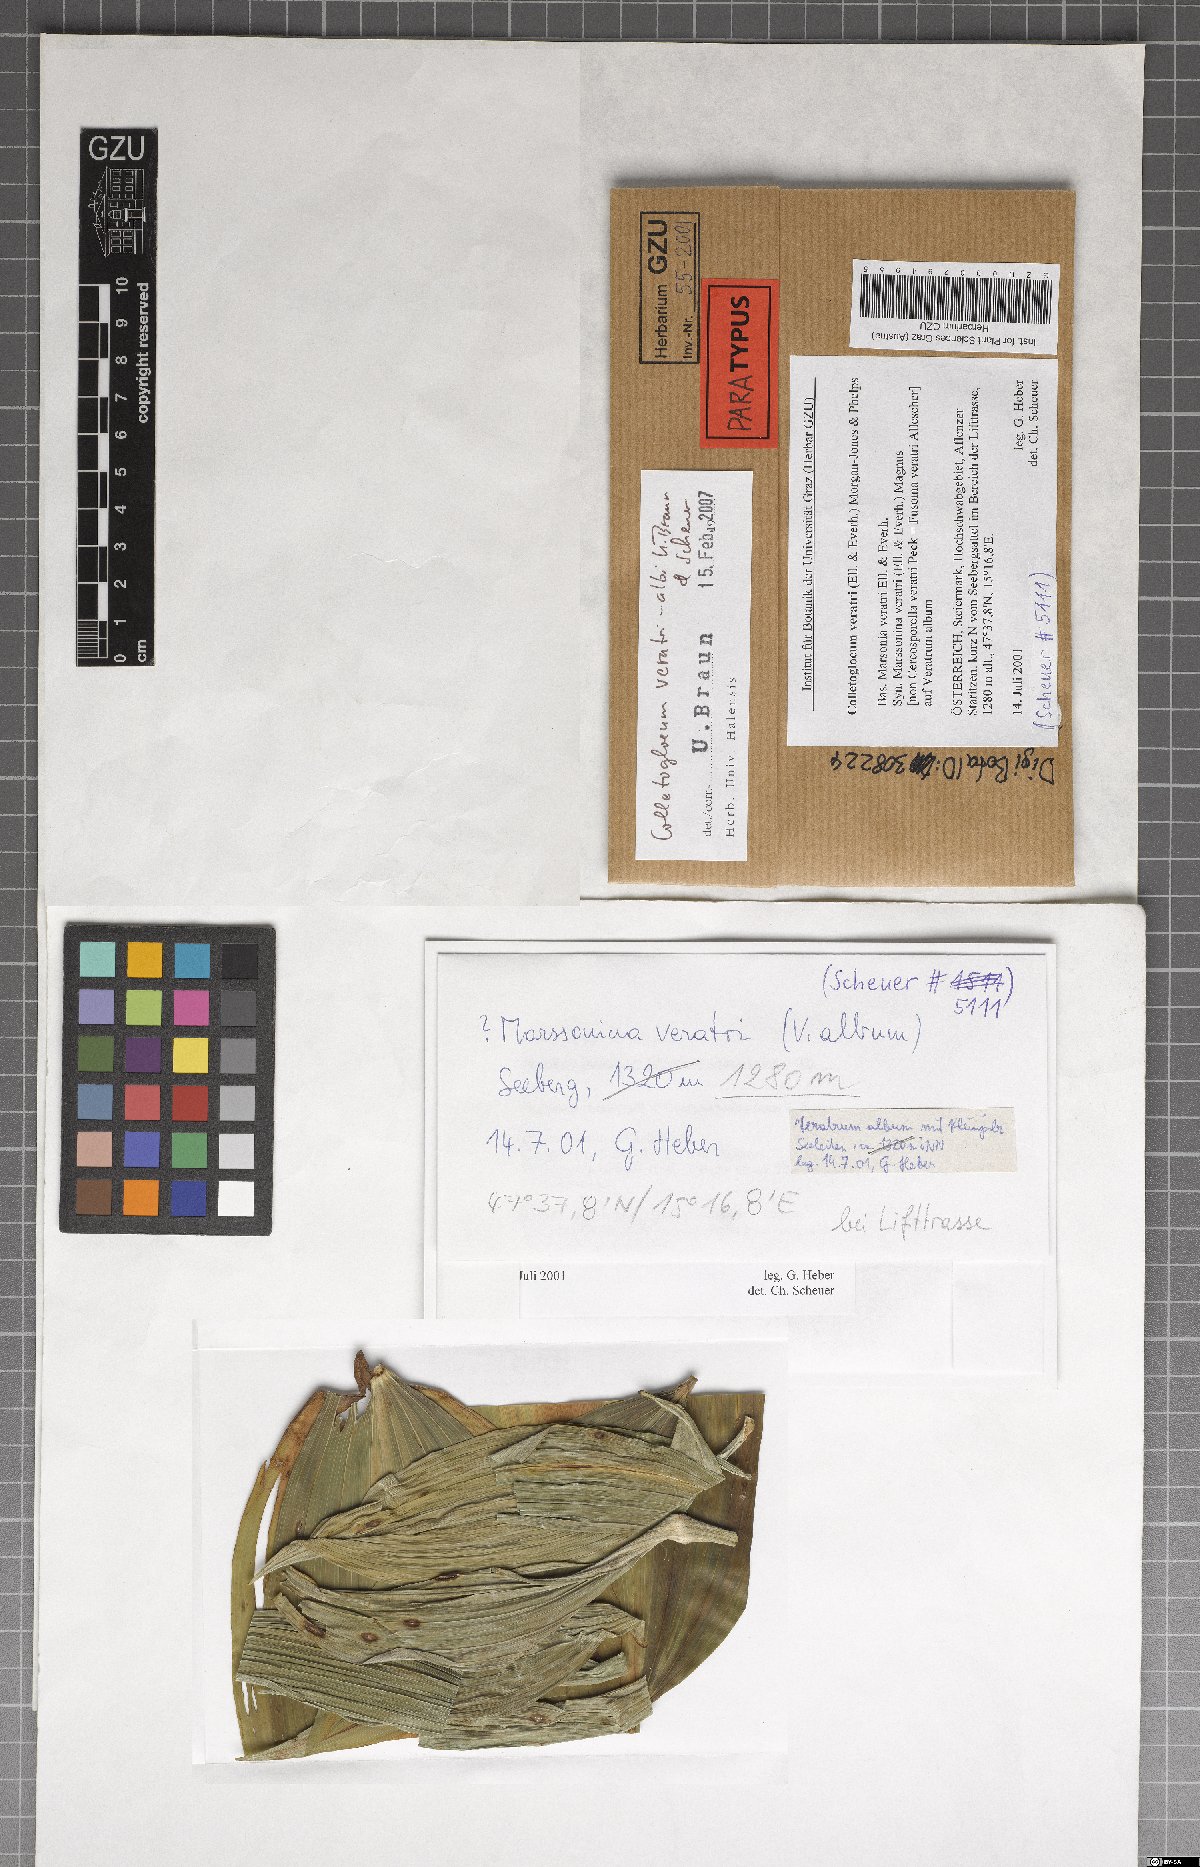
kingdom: Fungi
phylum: Ascomycota
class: Dothideomycetes
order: Mycosphaerellales
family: Mycosphaerellaceae
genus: Colletogloeum
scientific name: Colletogloeum veratri-albi
